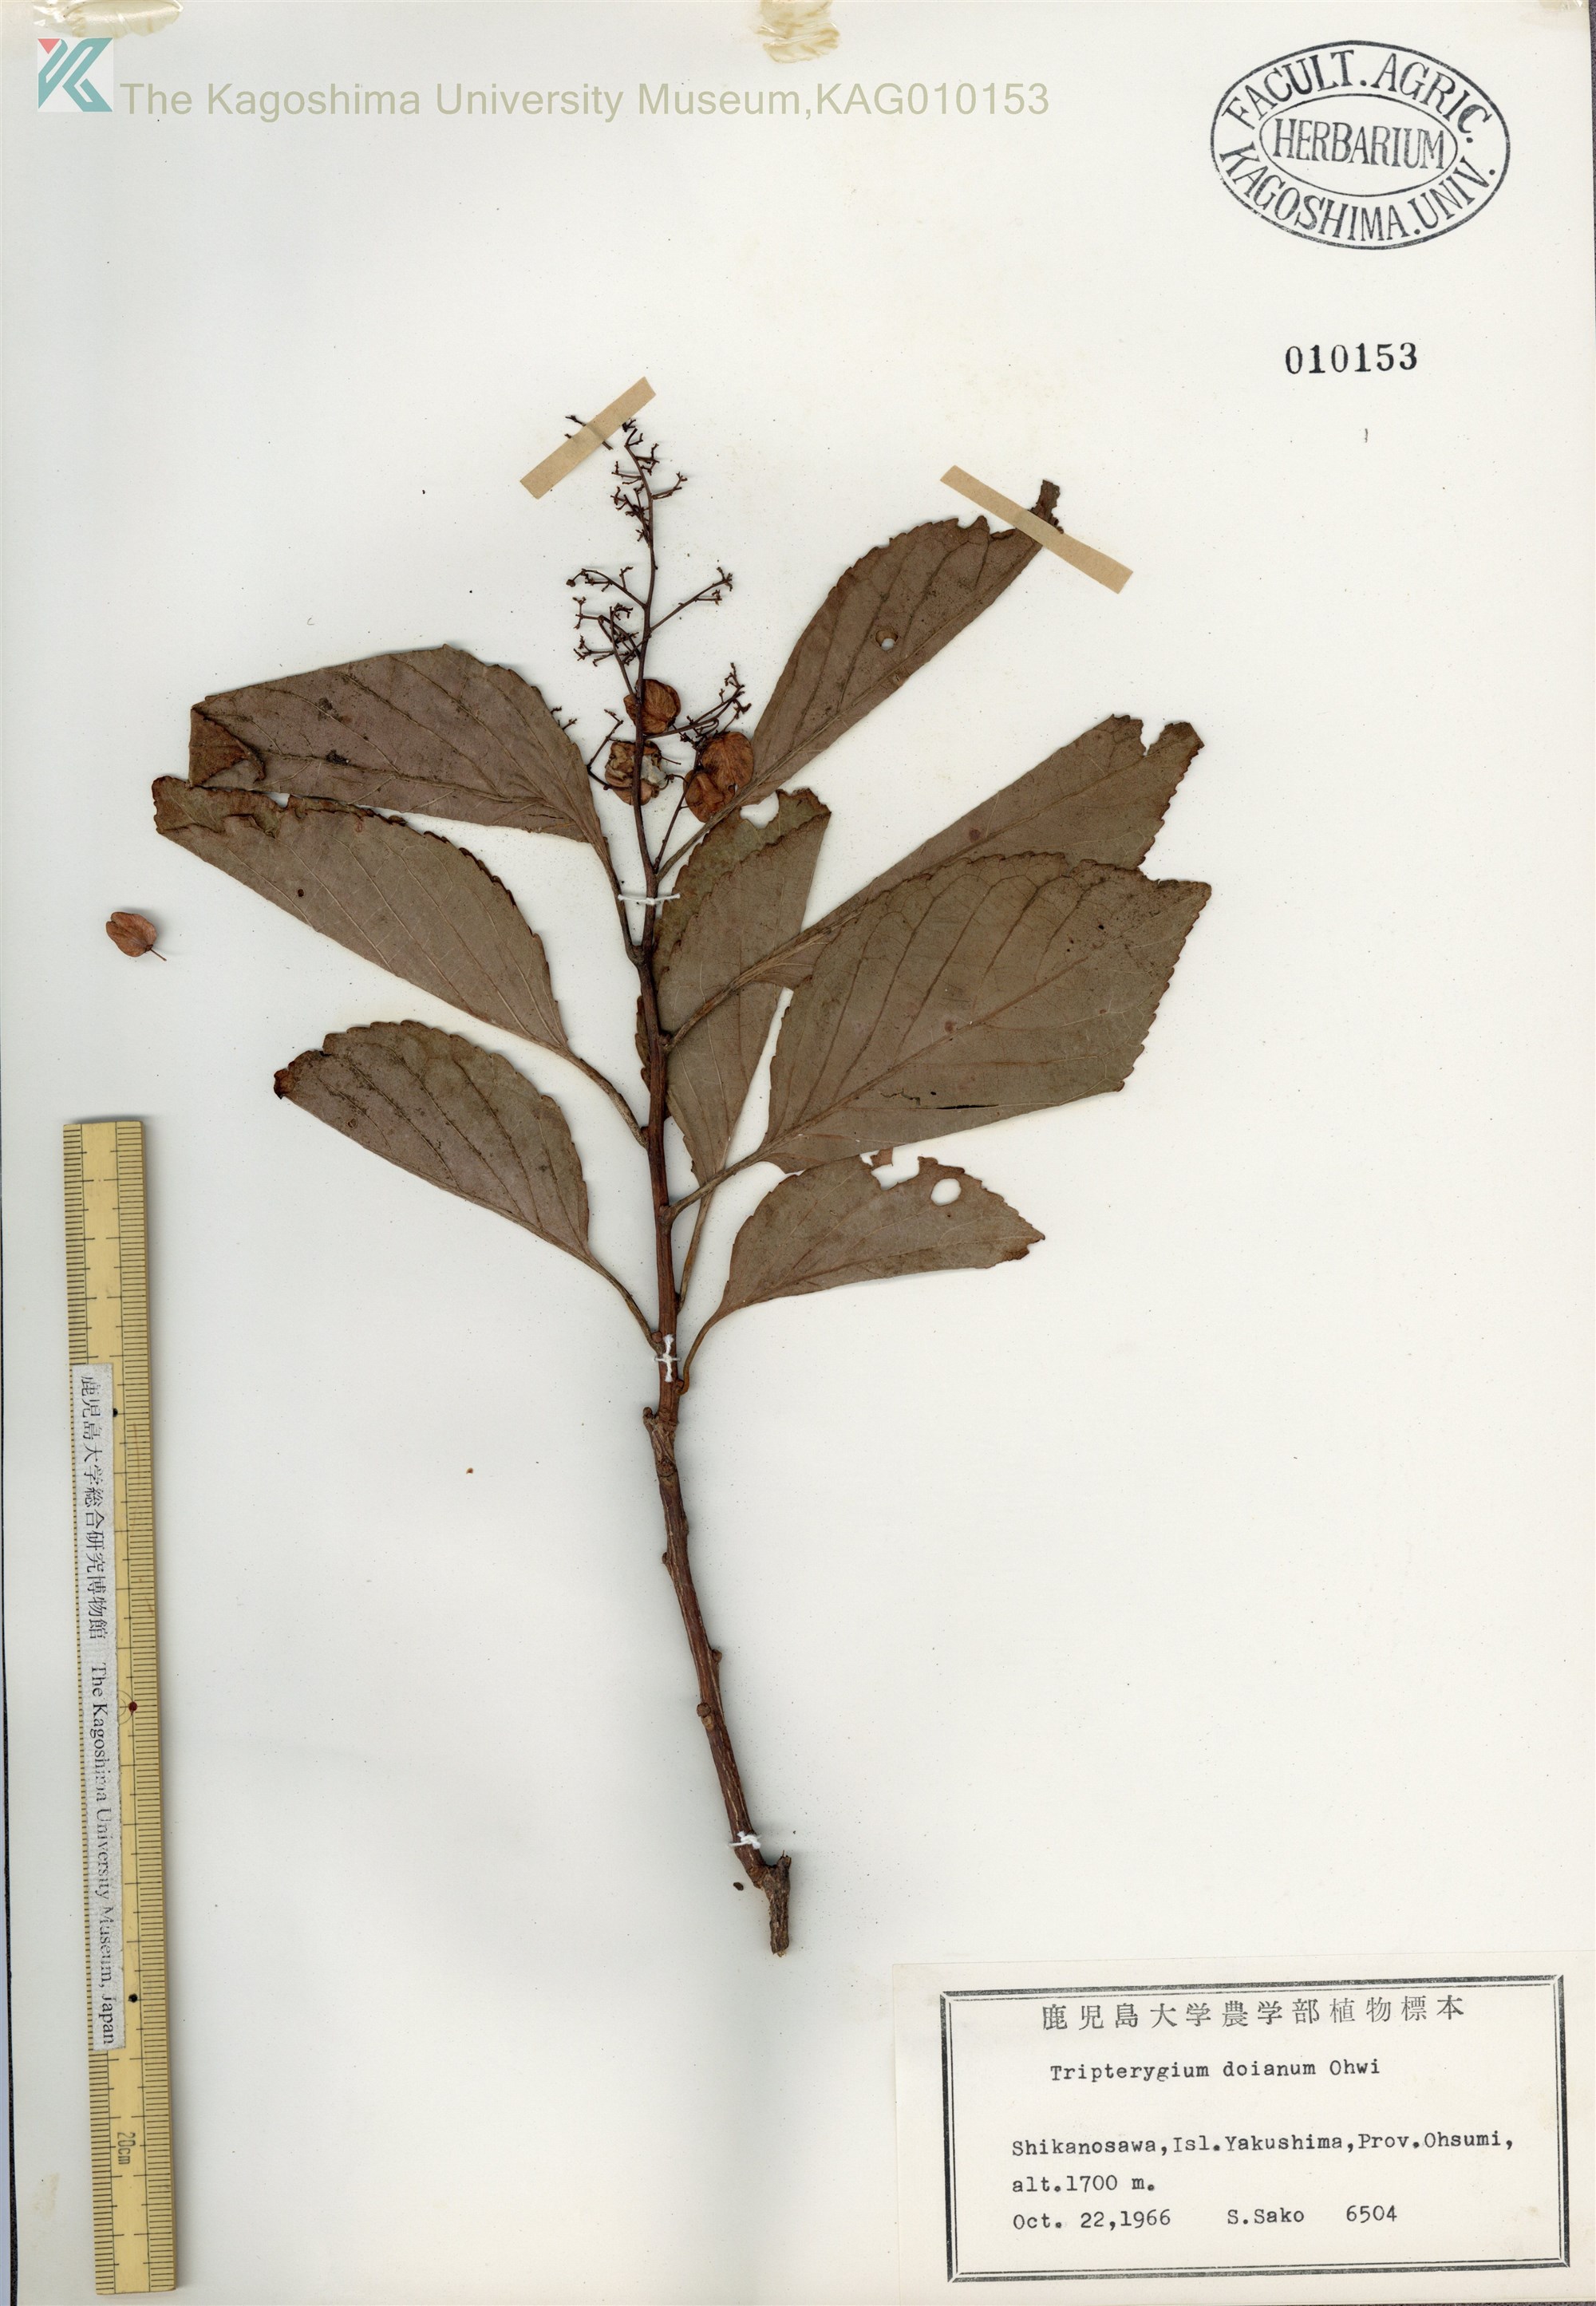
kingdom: Plantae
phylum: Tracheophyta
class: Magnoliopsida
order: Celastrales
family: Celastraceae
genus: Tripterygium
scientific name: Tripterygium doianum
